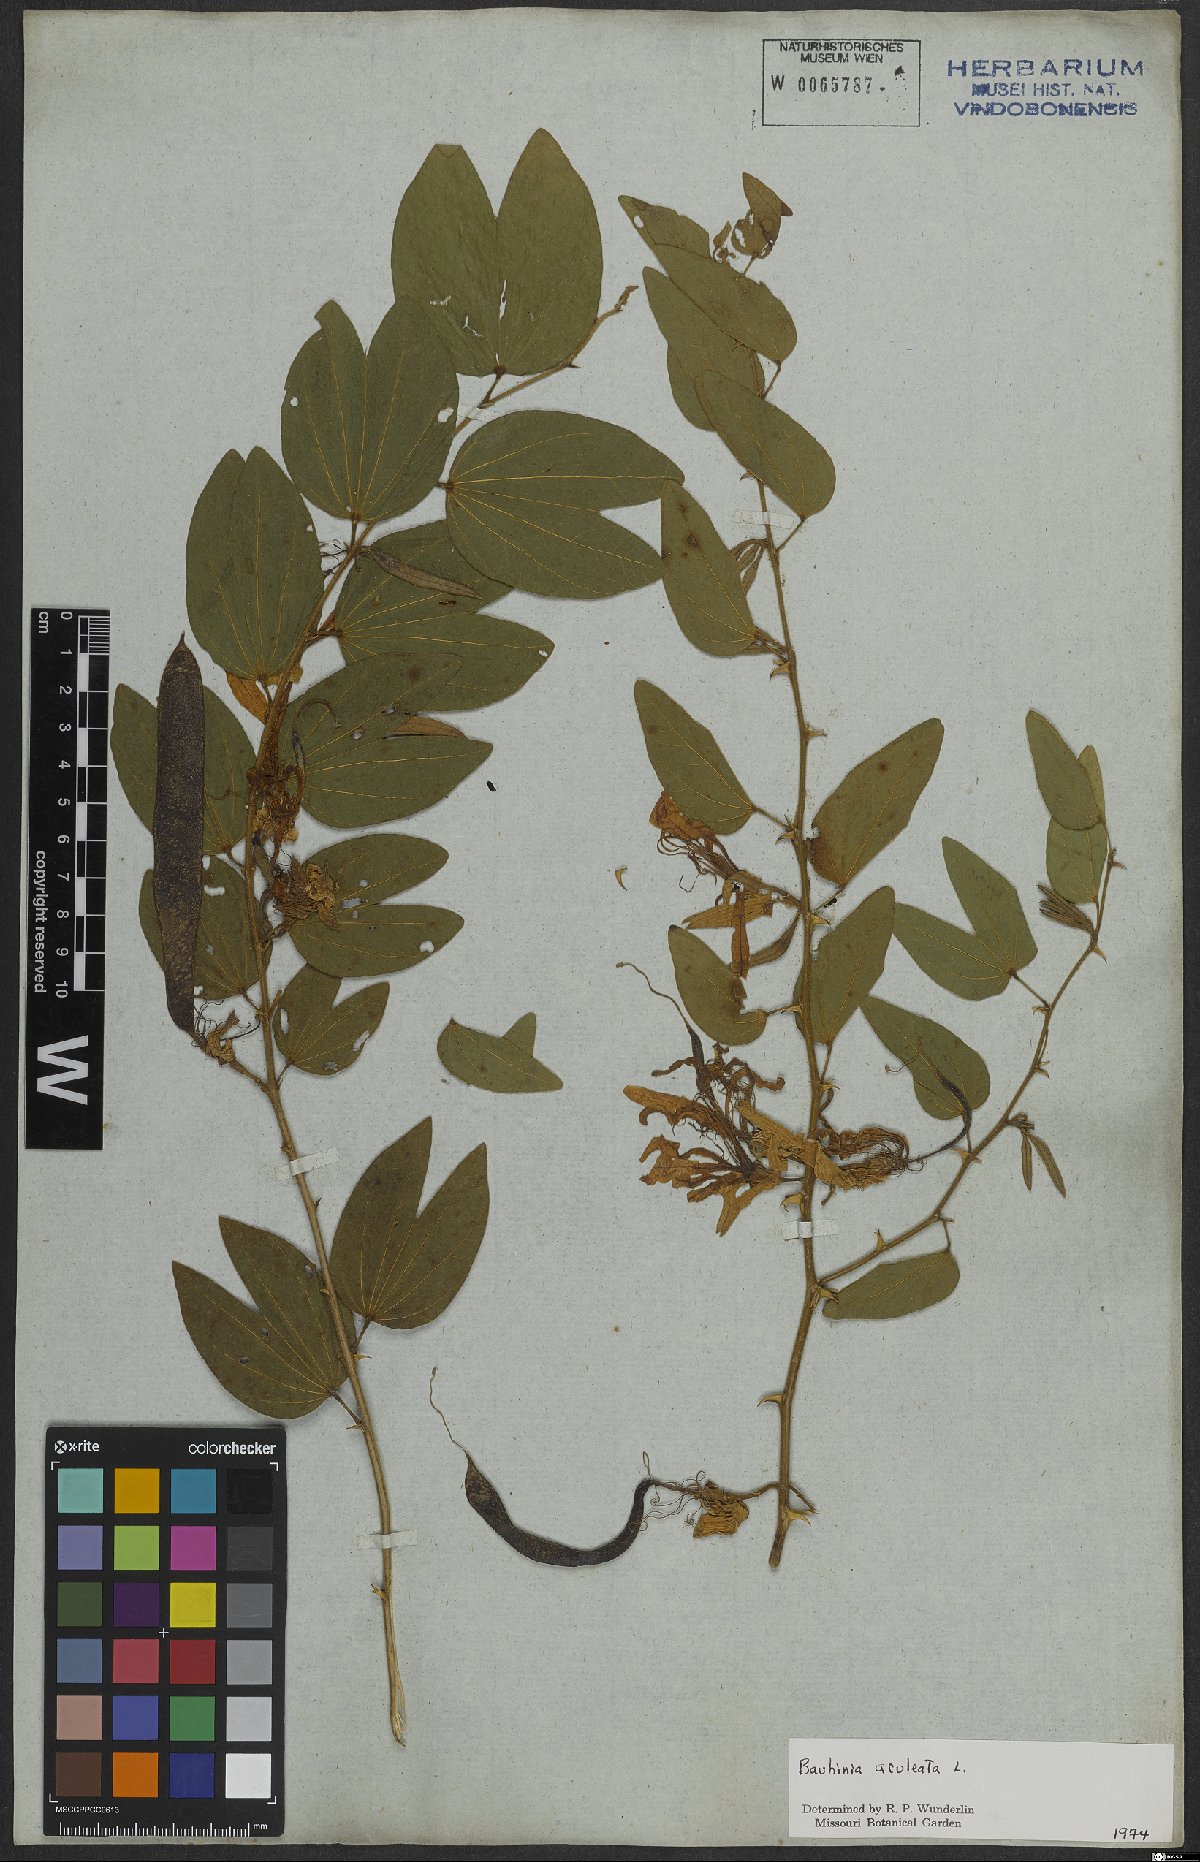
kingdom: Plantae
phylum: Tracheophyta
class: Magnoliopsida
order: Fabales
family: Fabaceae
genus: Bauhinia
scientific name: Bauhinia aculeata
